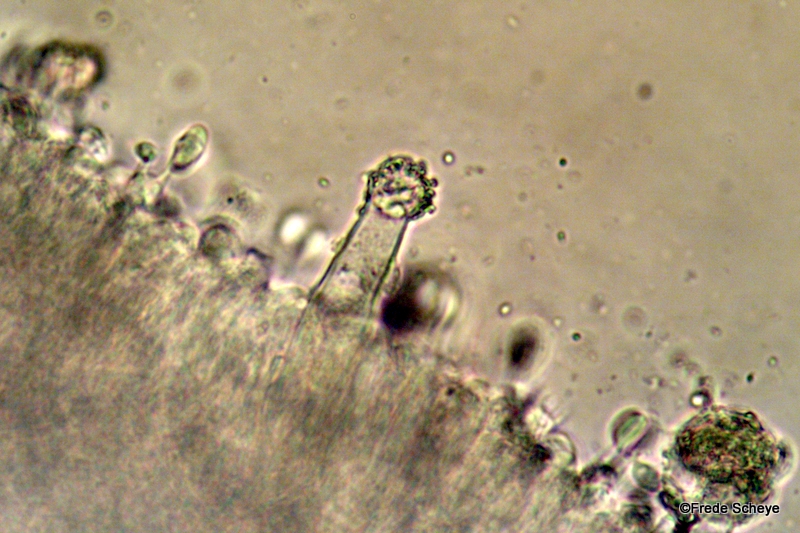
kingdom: Fungi
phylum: Basidiomycota
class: Agaricomycetes
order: Agaricales
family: Physalacriaceae
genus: Strobilurus
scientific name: Strobilurus esculentus
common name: gran-koglehat
